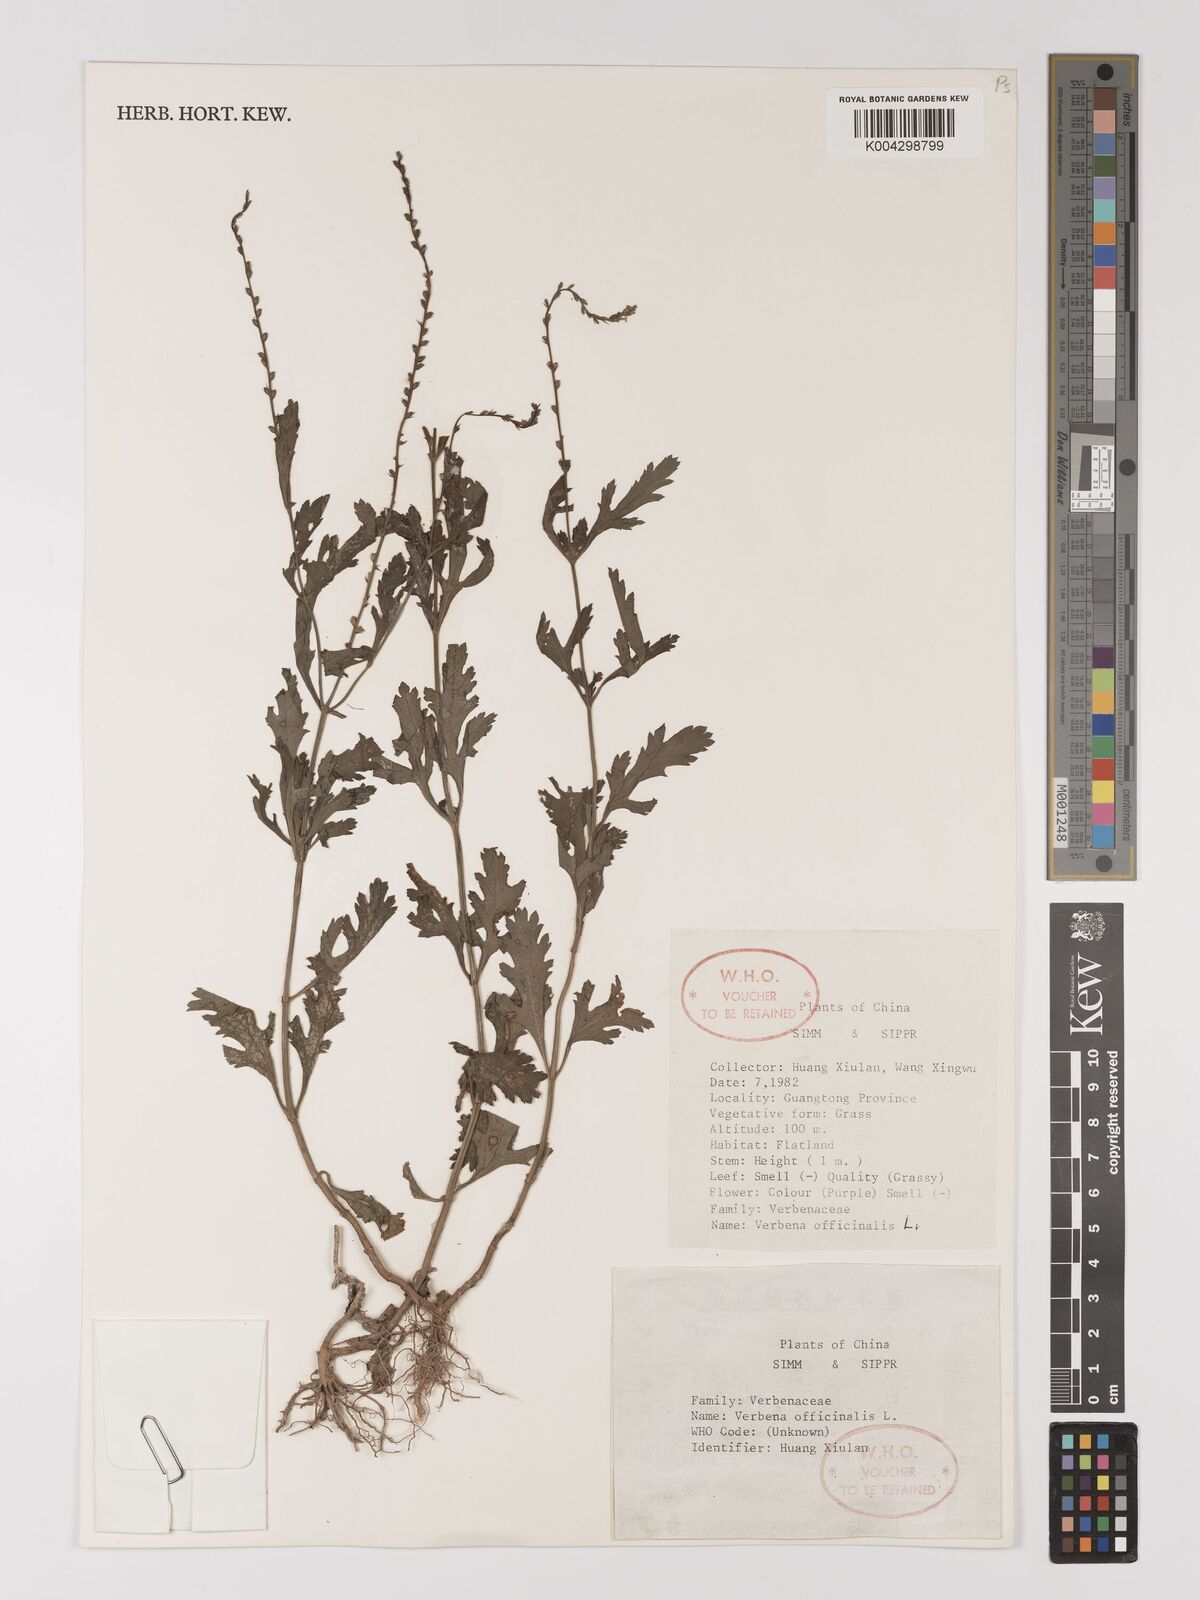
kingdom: Plantae
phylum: Tracheophyta
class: Magnoliopsida
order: Lamiales
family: Verbenaceae
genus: Verbena
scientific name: Verbena officinalis
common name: Vervain
